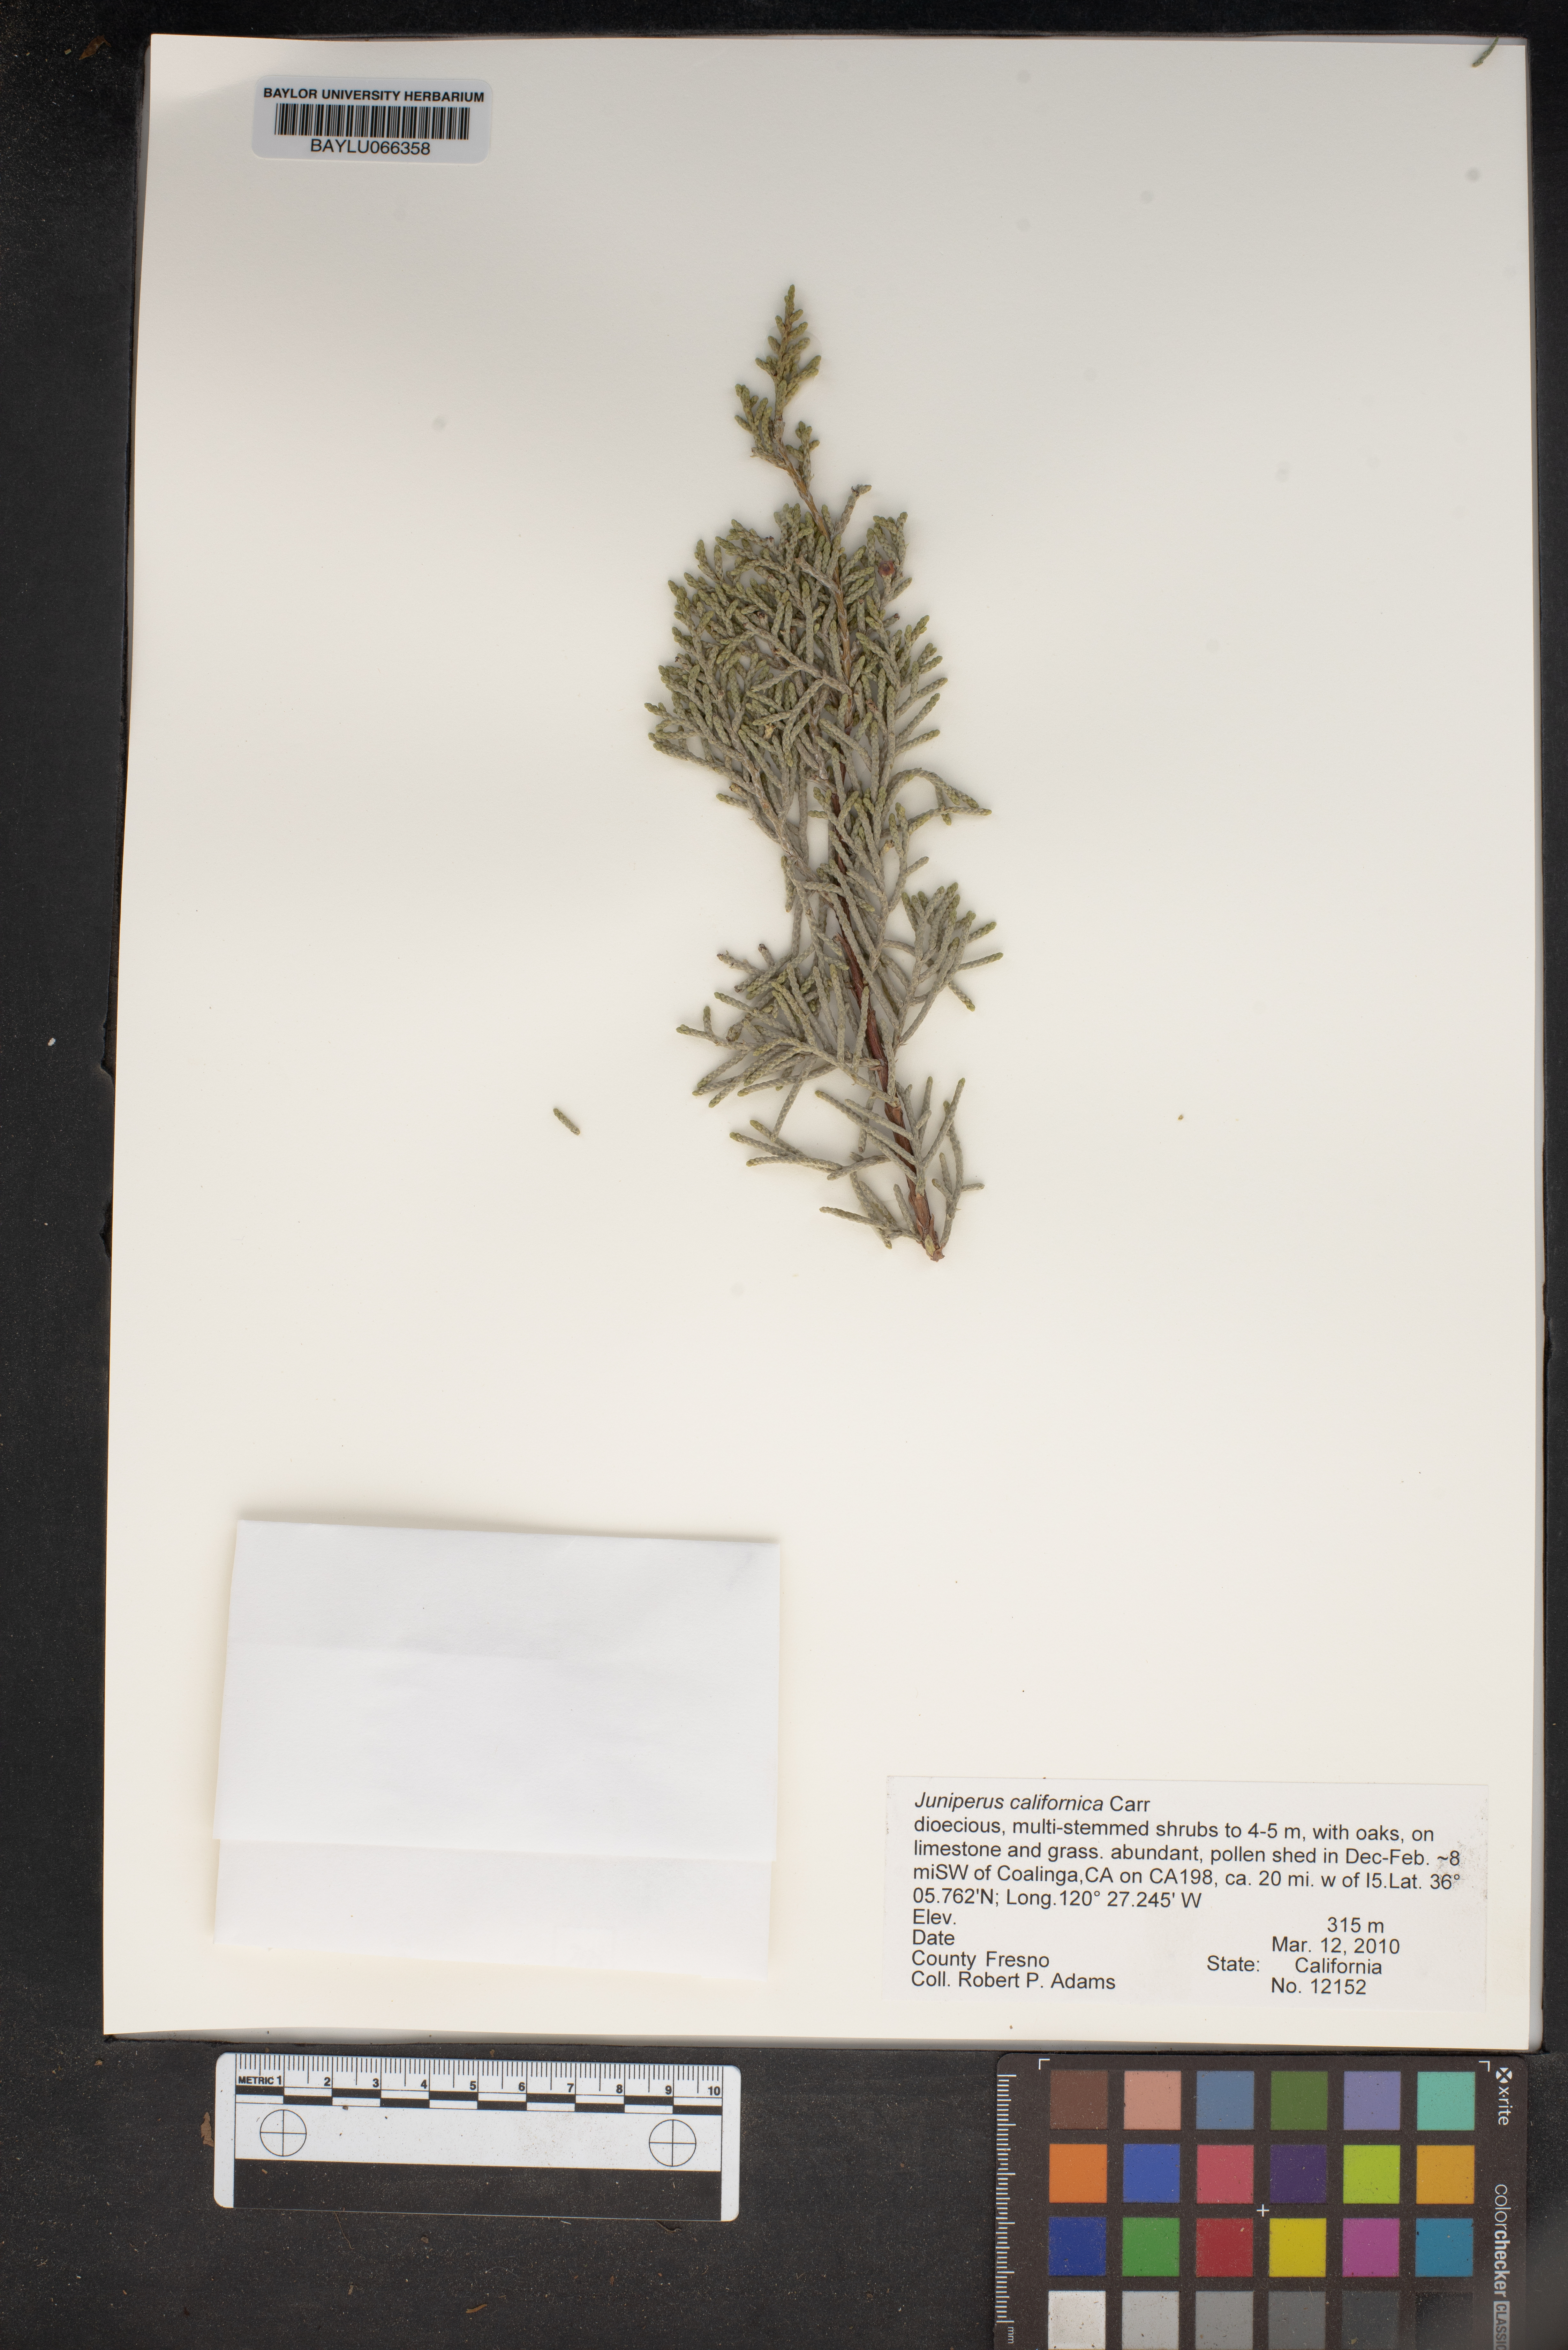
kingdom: Plantae
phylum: Tracheophyta
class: Pinopsida
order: Pinales
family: Cupressaceae
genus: Juniperus
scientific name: Juniperus californica
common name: California juniper
